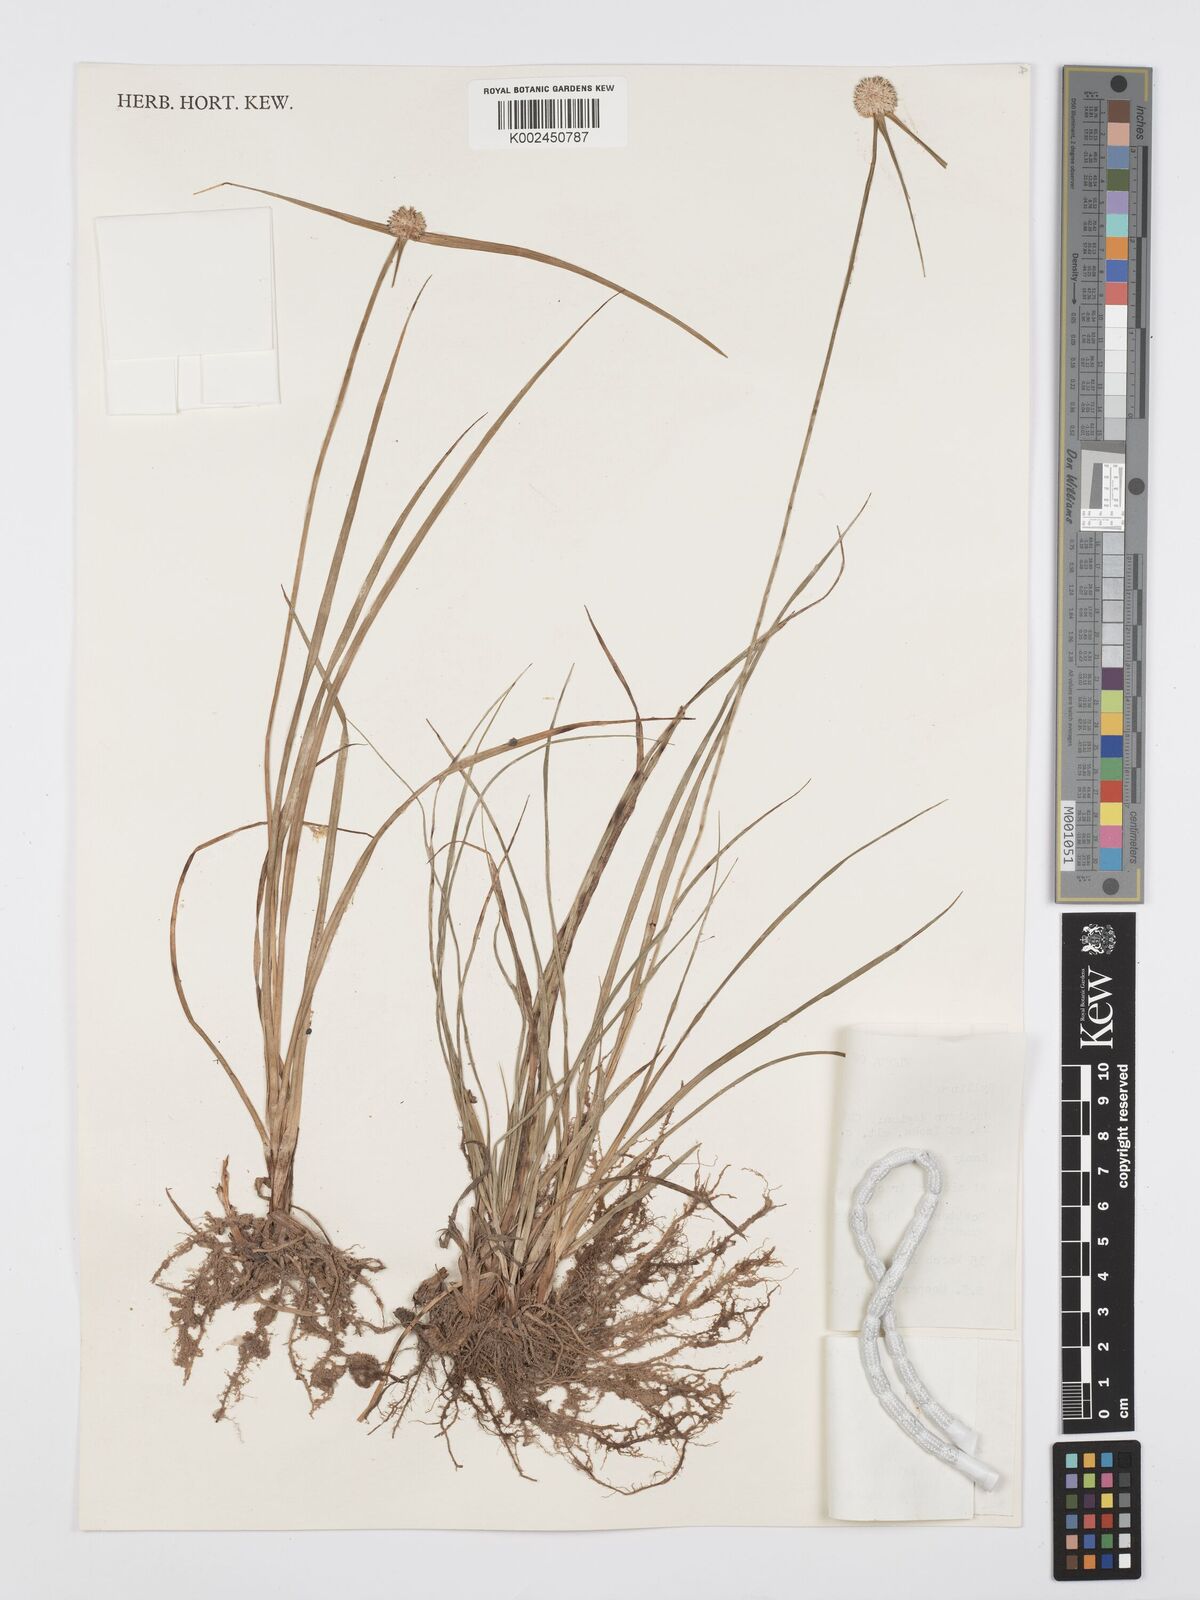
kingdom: Plantae
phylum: Tracheophyta
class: Liliopsida
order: Poales
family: Cyperaceae
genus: Cyperus
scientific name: Cyperus rukwanus
